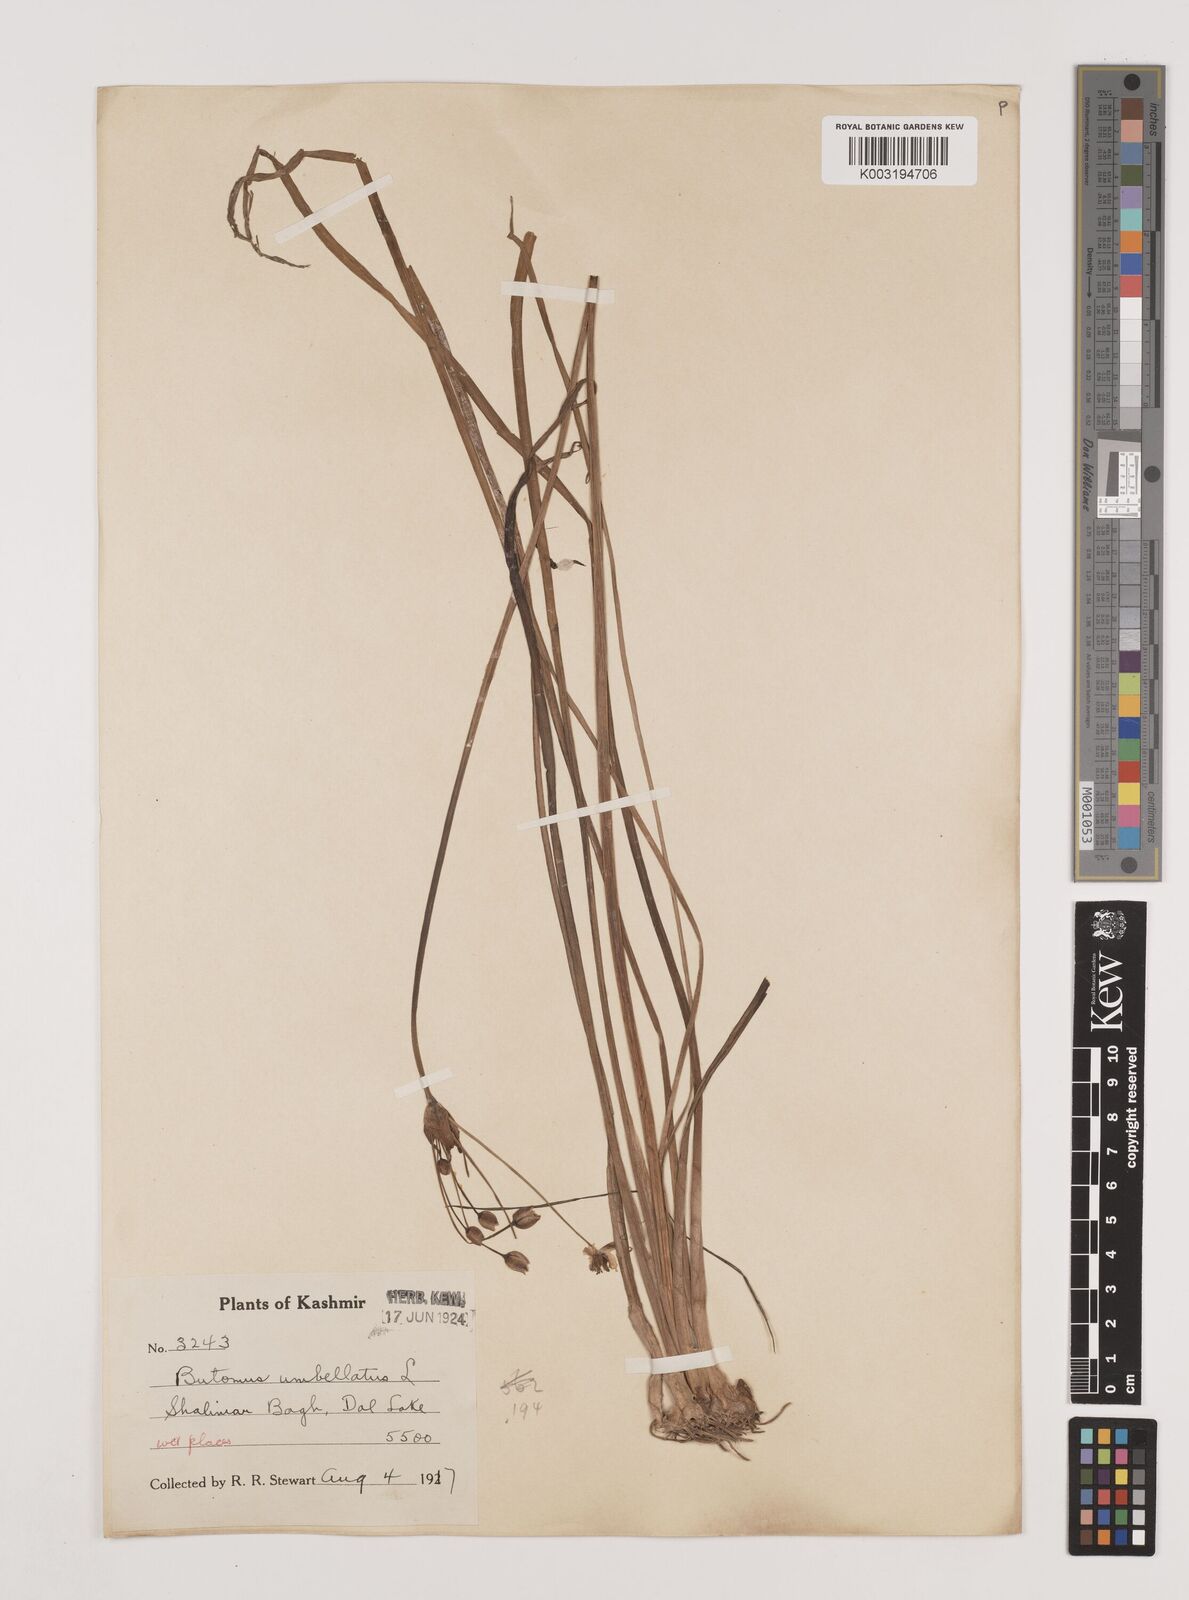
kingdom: Plantae
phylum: Tracheophyta
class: Liliopsida
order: Alismatales
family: Butomaceae
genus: Butomus
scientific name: Butomus umbellatus
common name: Flowering-rush
